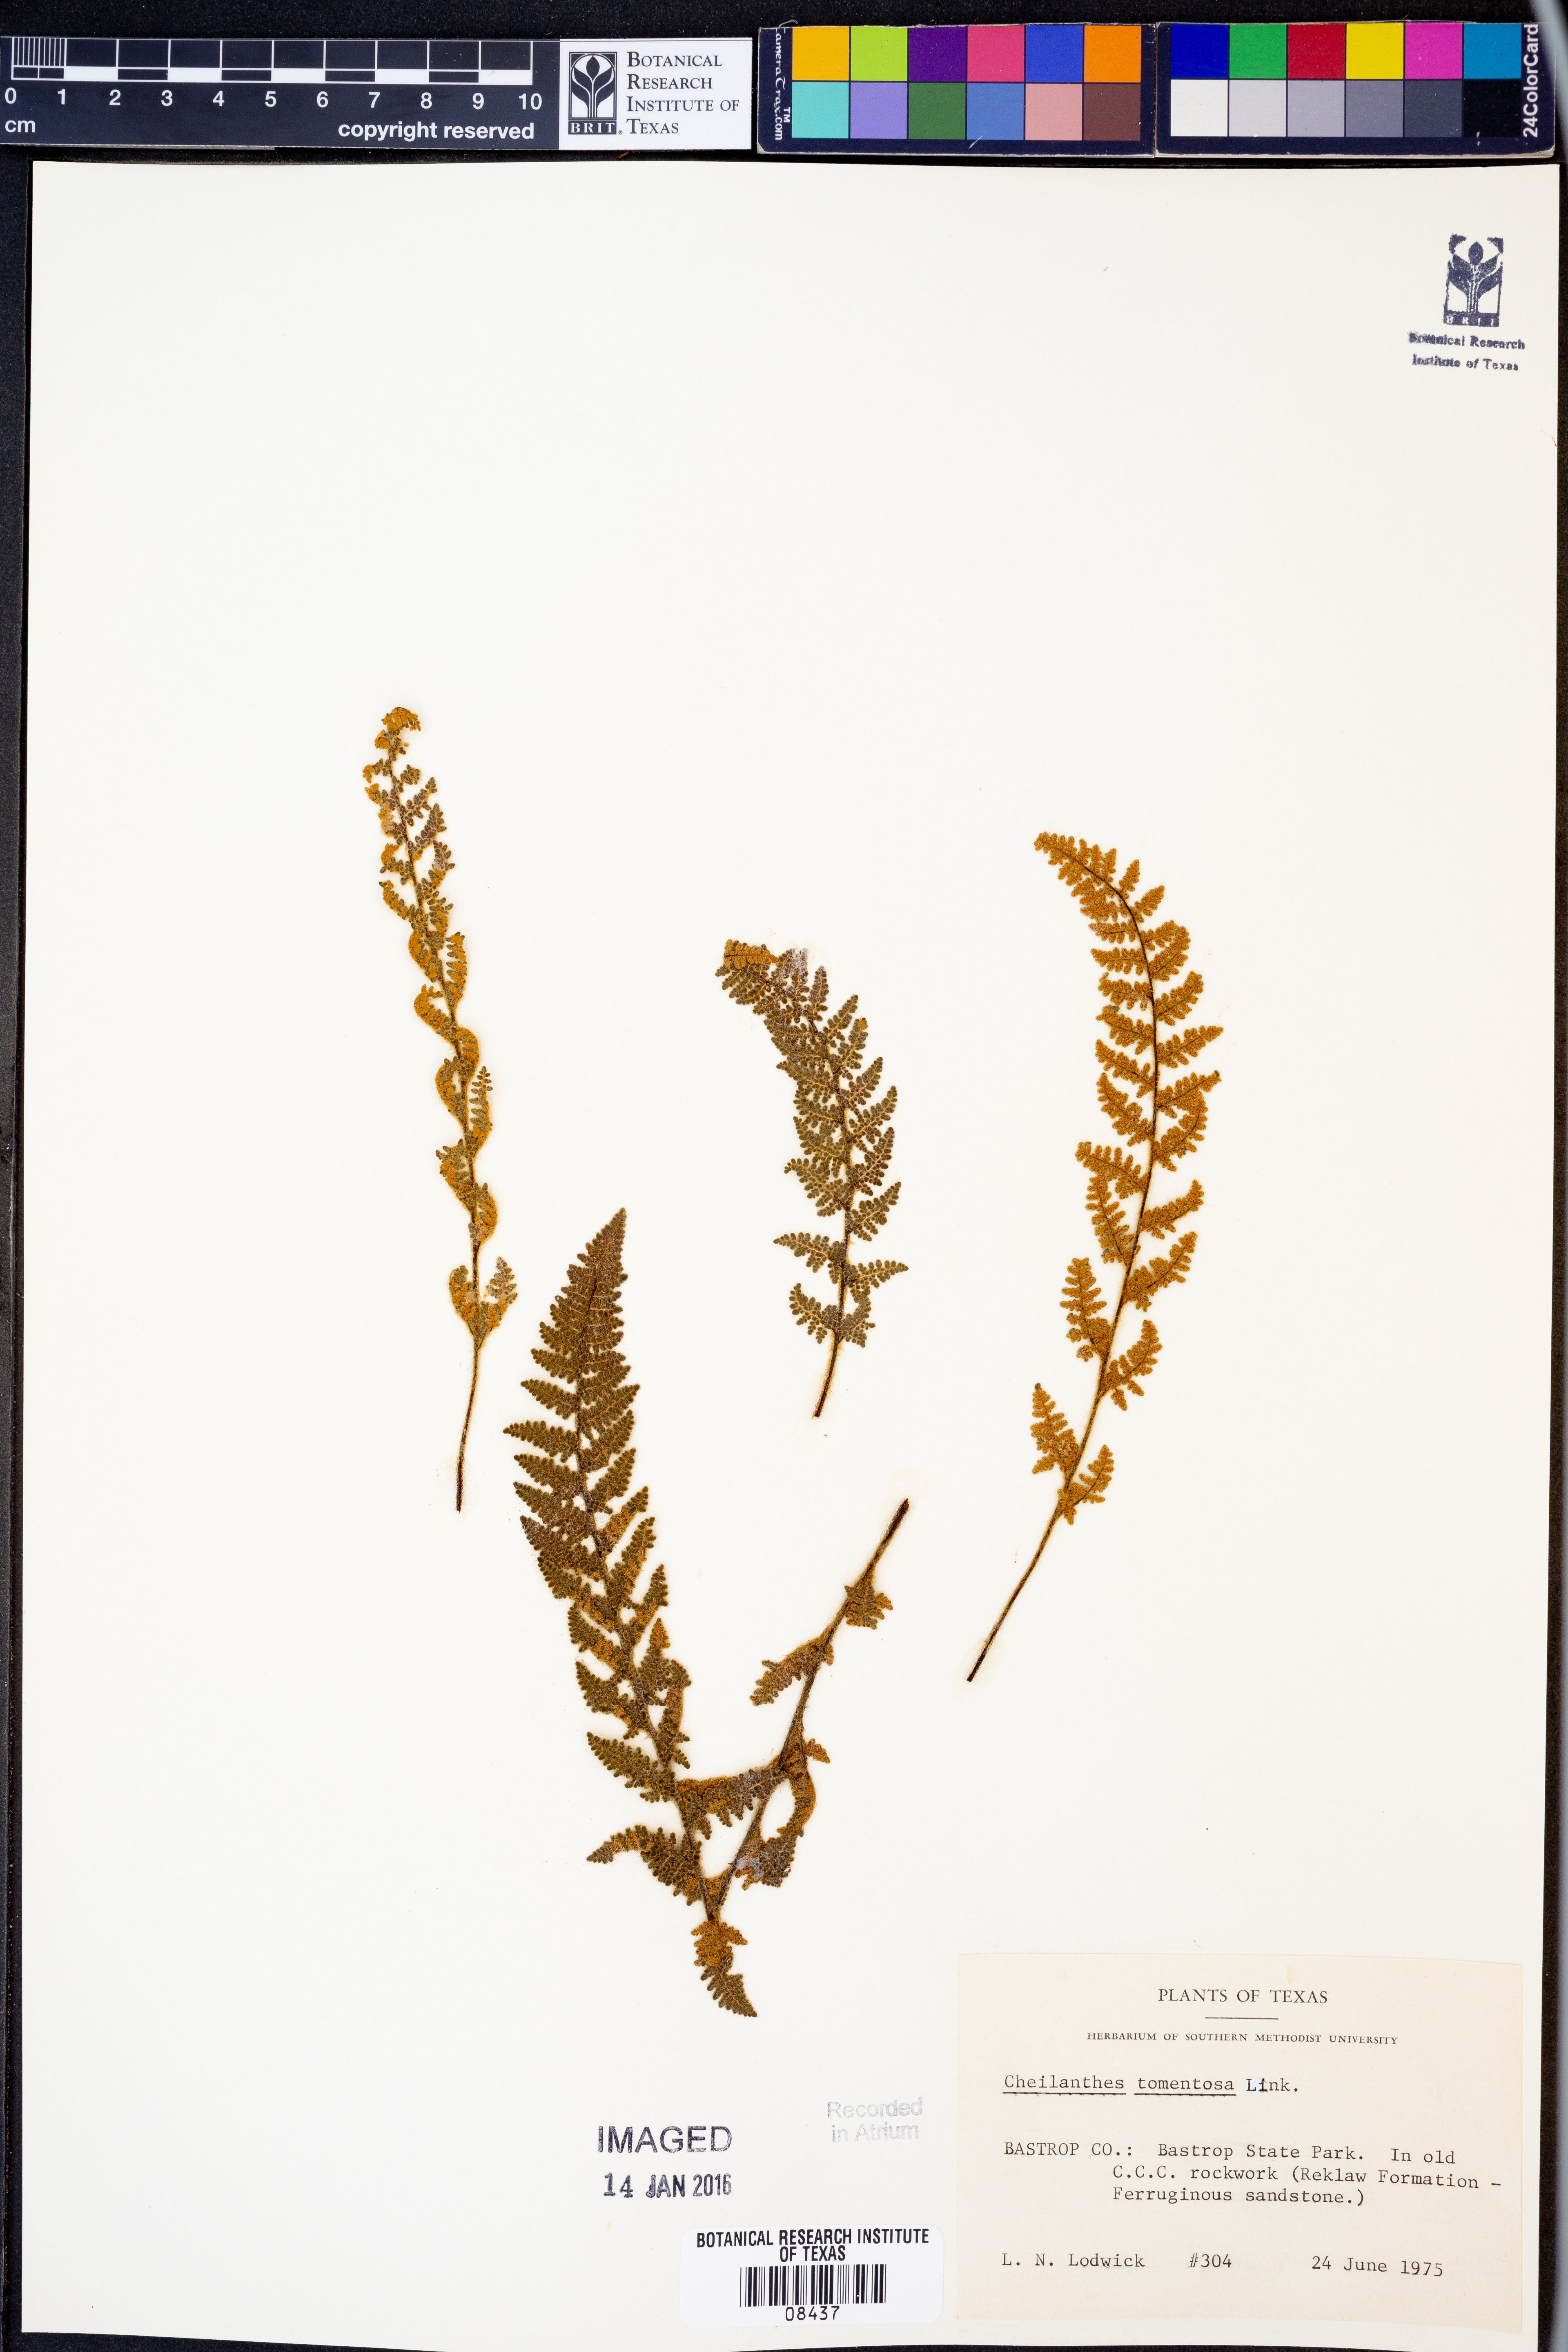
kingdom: Plantae
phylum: Tracheophyta
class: Polypodiopsida
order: Polypodiales
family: Pteridaceae
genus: Myriopteris
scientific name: Myriopteris tomentosa
